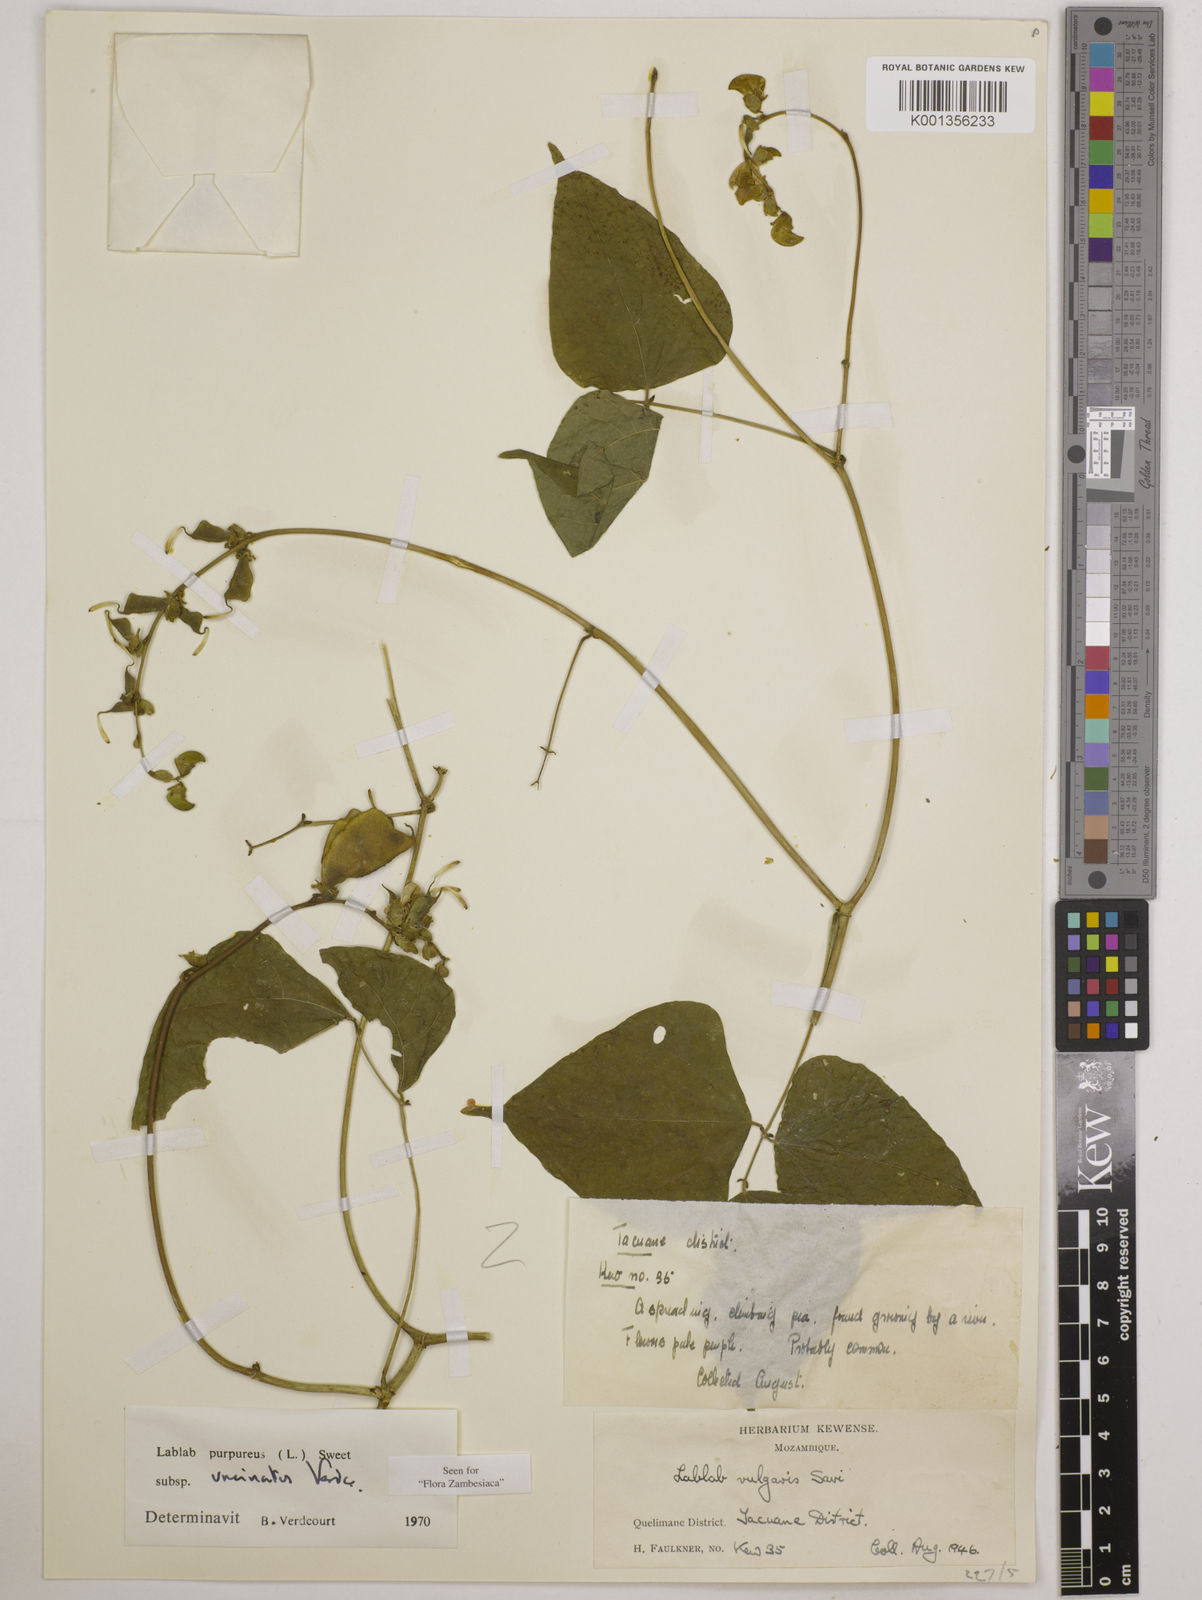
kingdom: Plantae
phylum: Tracheophyta
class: Magnoliopsida
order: Fabales
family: Fabaceae
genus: Lablab
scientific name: Lablab purpureus
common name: Lablab-bean
